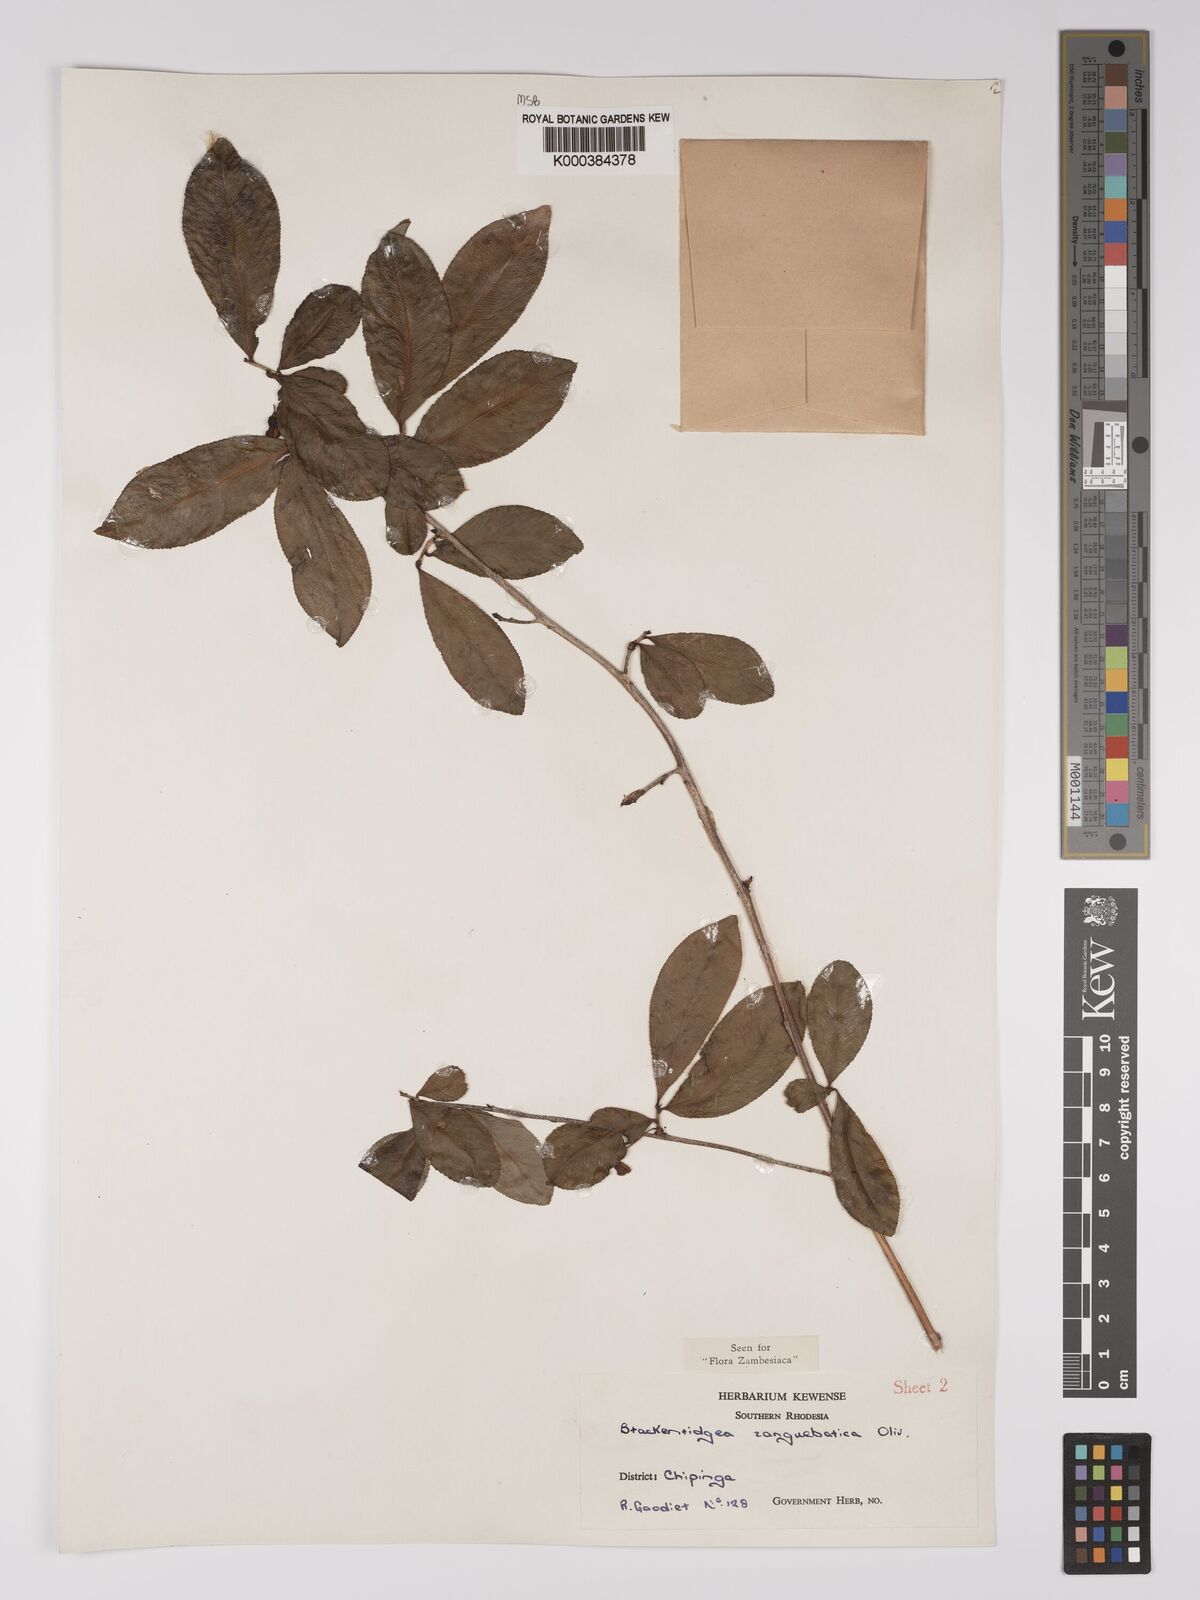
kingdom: Plantae
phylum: Tracheophyta
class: Magnoliopsida
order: Malpighiales
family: Ochnaceae
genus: Brackenridgea
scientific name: Brackenridgea zanguebarica
